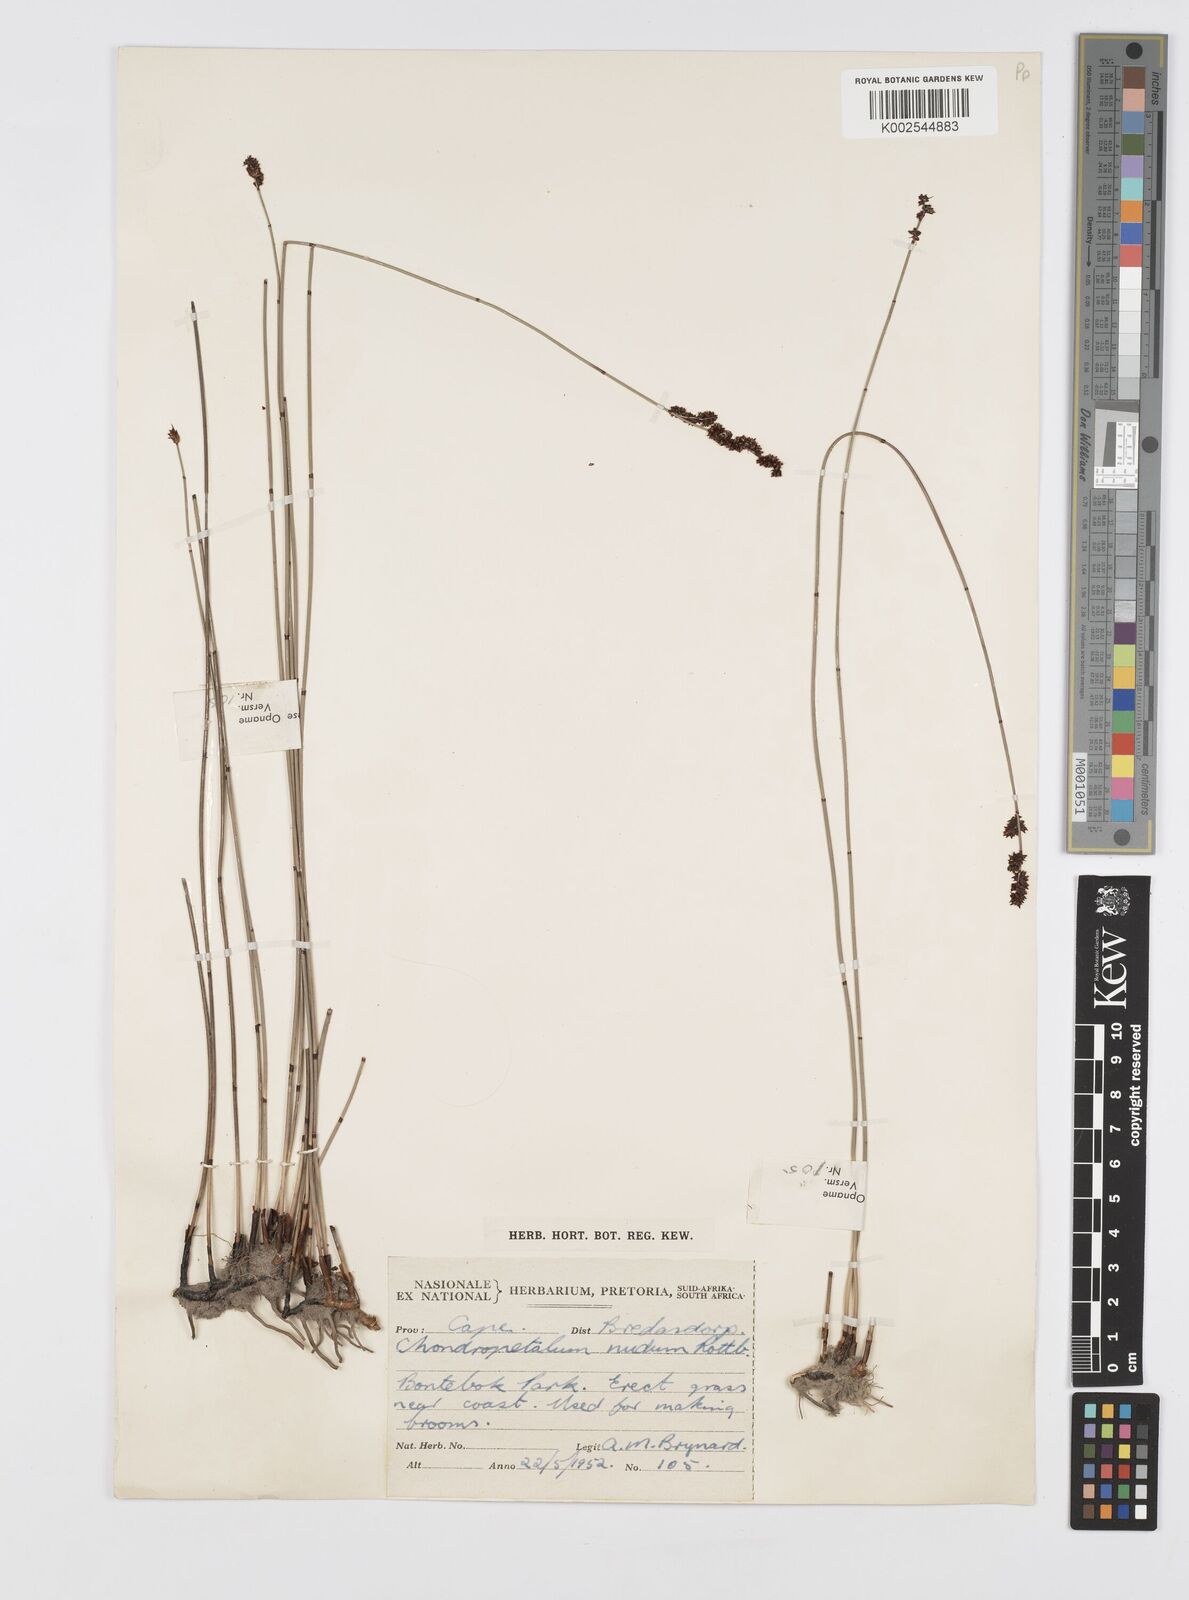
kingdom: Plantae
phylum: Tracheophyta
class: Liliopsida
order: Poales
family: Restionaceae
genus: Elegia
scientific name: Elegia nuda
